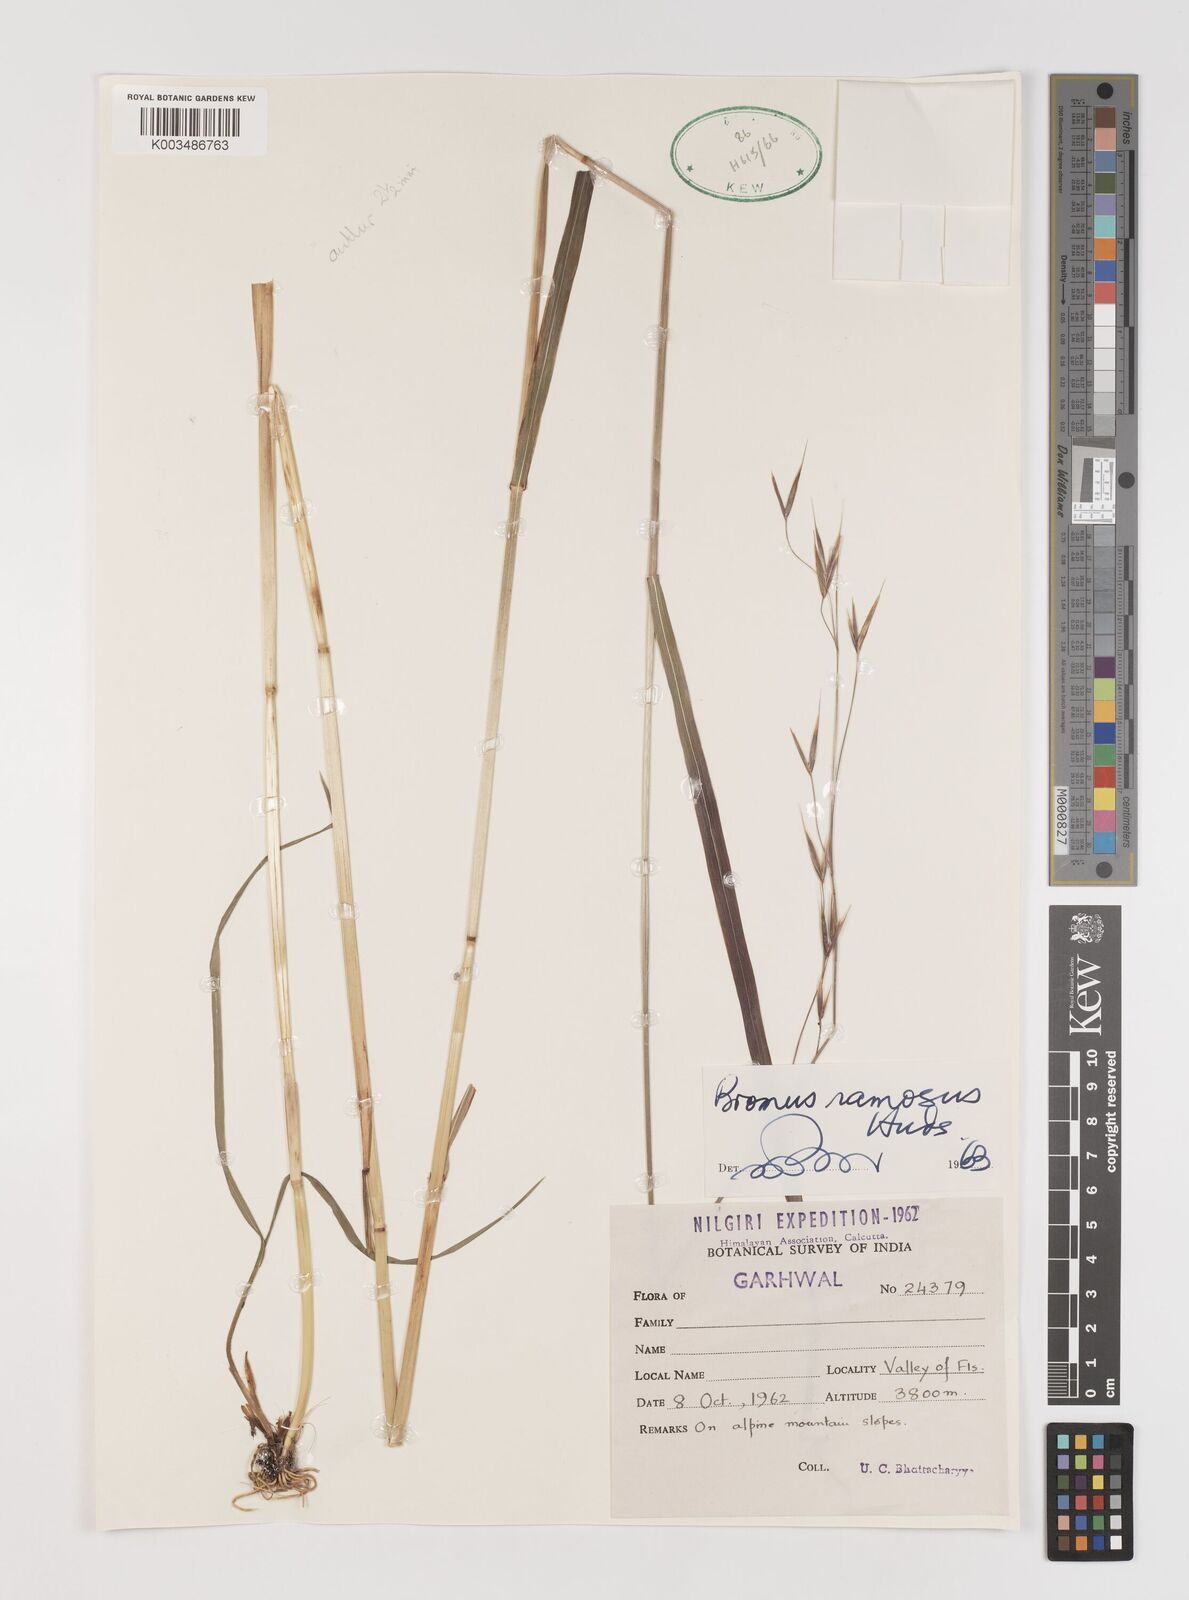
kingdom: Plantae
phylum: Tracheophyta
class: Liliopsida
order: Poales
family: Poaceae
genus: Brachypodium
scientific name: Brachypodium retusum
